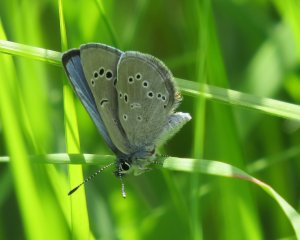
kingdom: Animalia
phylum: Arthropoda
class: Insecta
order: Lepidoptera
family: Lycaenidae
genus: Glaucopsyche
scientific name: Glaucopsyche lygdamus
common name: Silvery Blue
